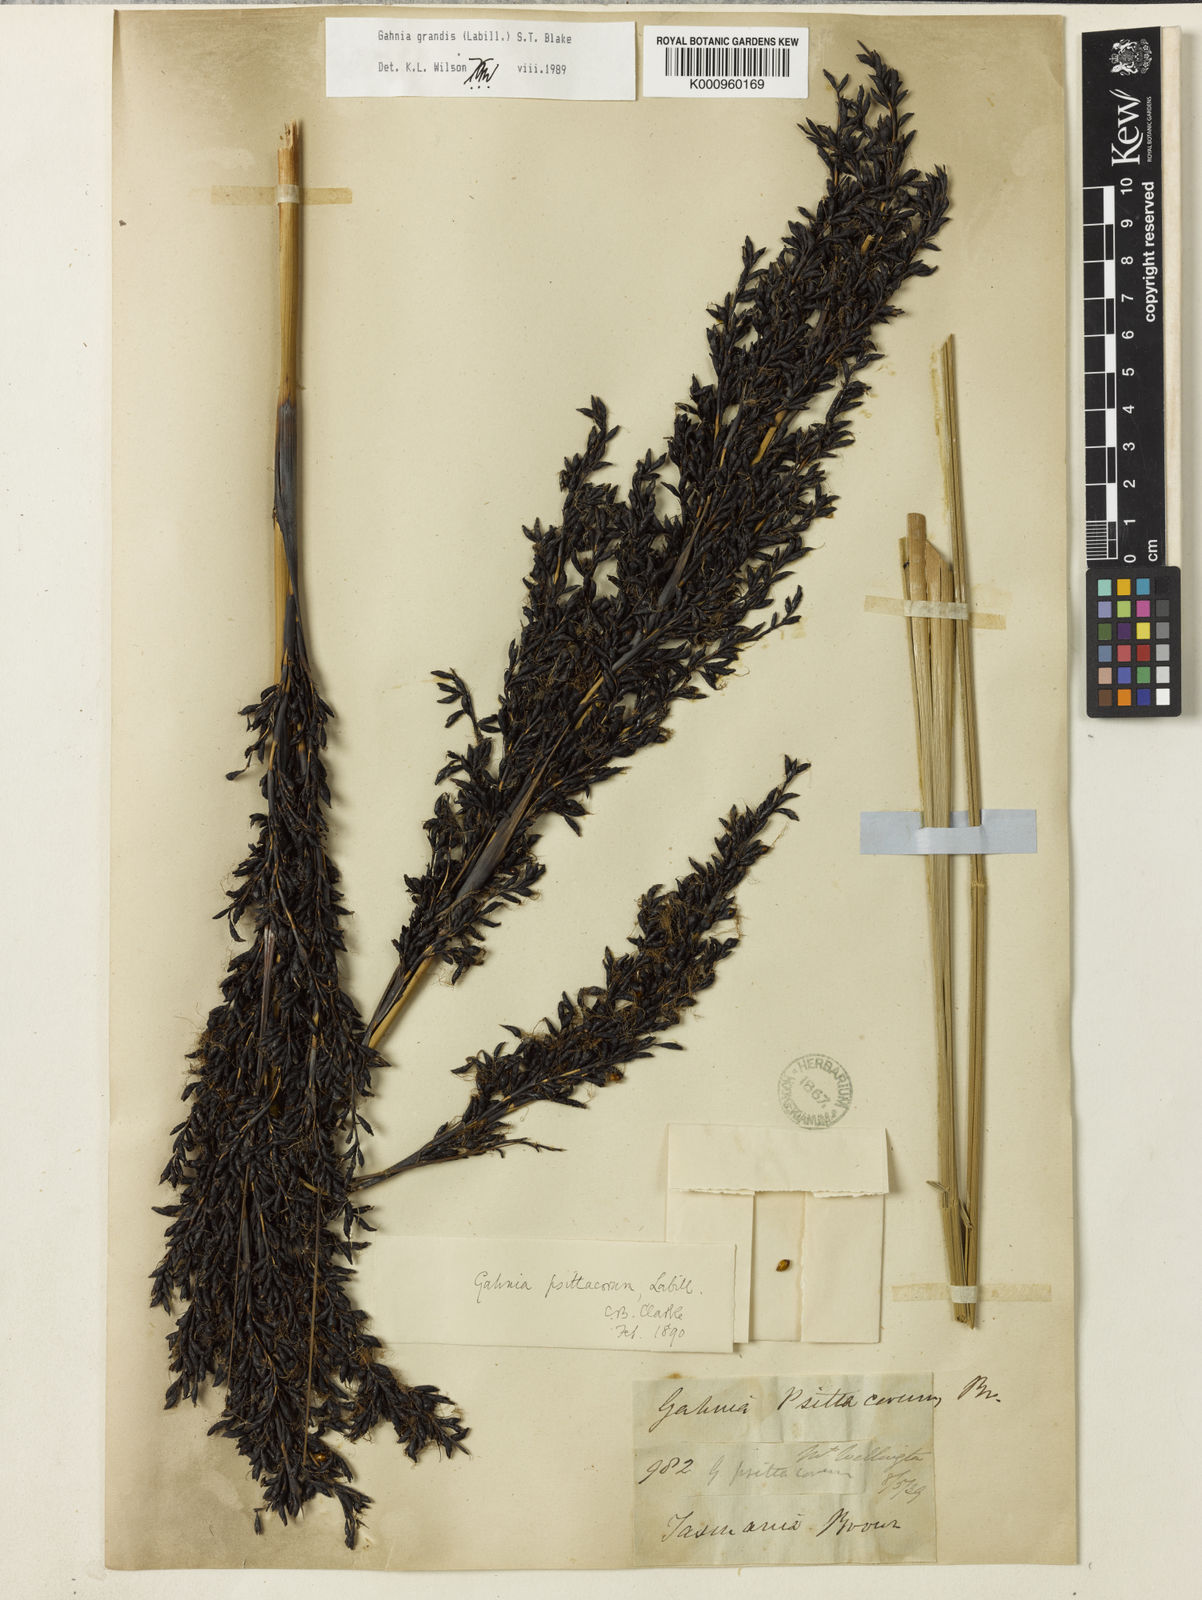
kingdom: Plantae
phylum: Tracheophyta
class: Liliopsida
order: Poales
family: Cyperaceae
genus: Gahnia
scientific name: Gahnia grandis
